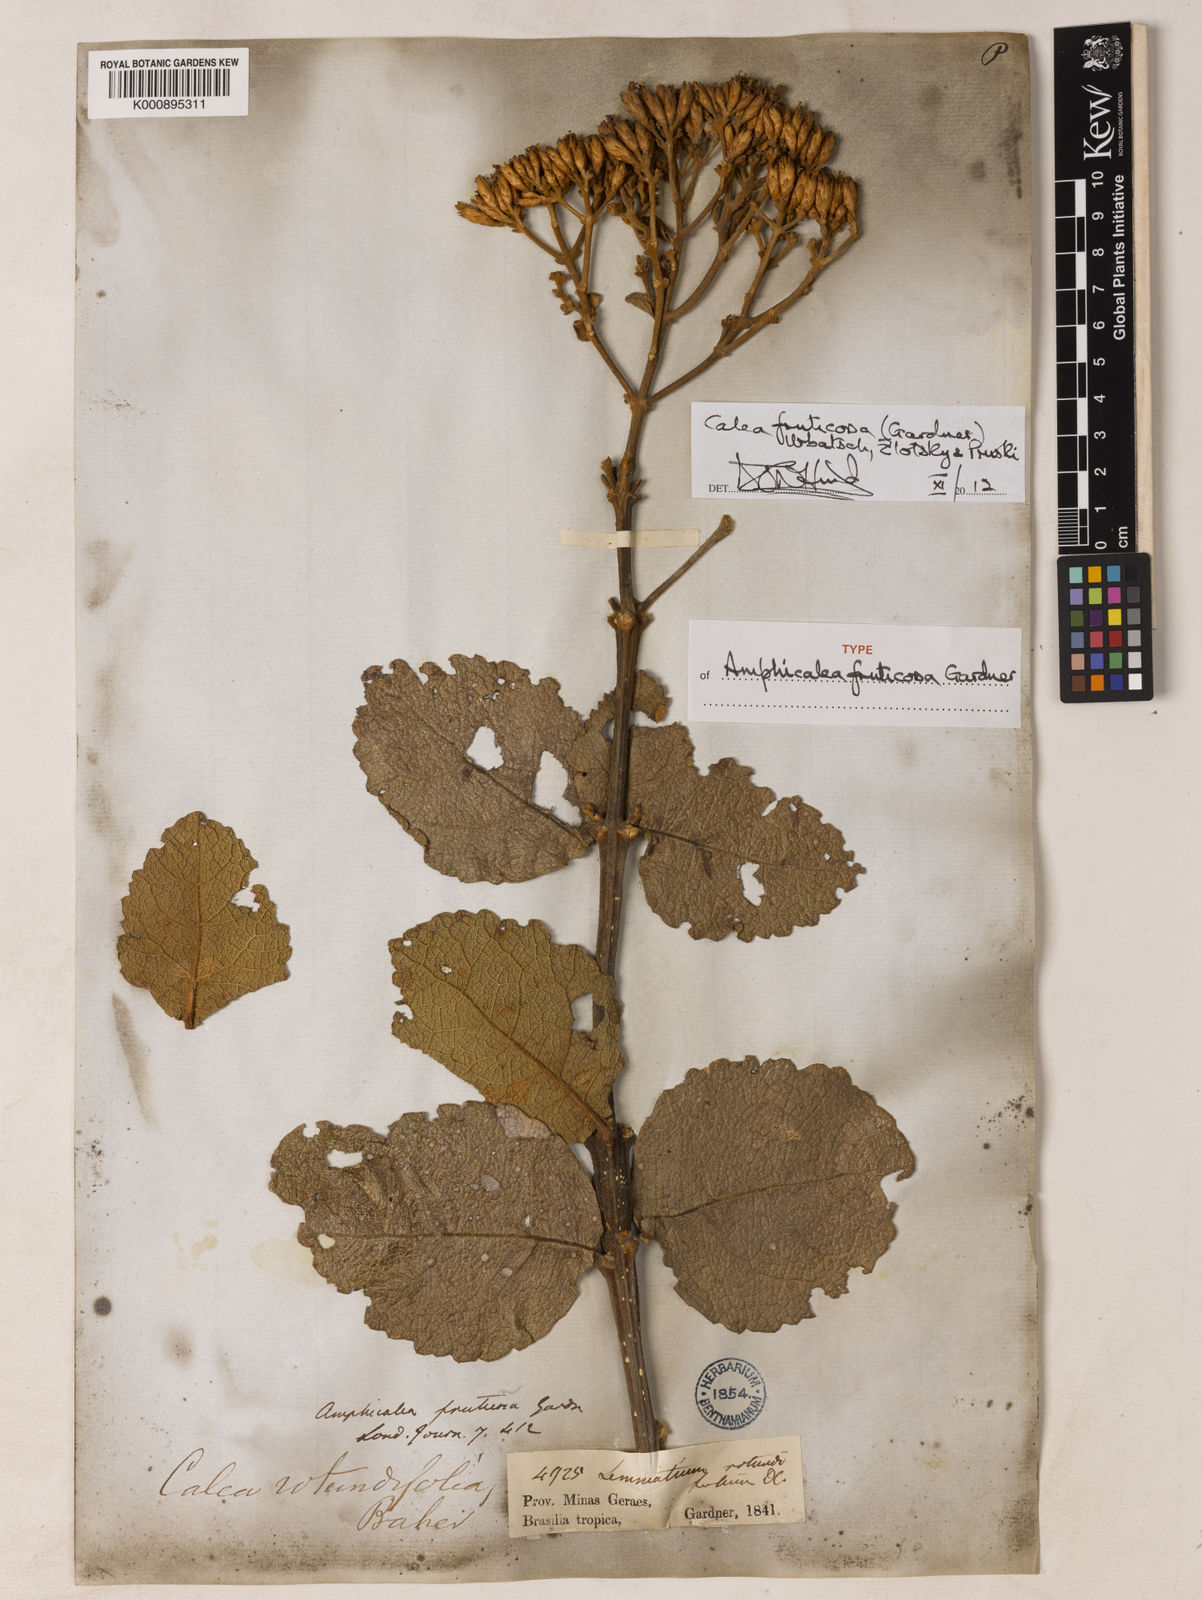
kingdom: Plantae
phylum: Tracheophyta
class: Magnoliopsida
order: Asterales
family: Asteraceae
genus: Calea
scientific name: Calea fruticosa
